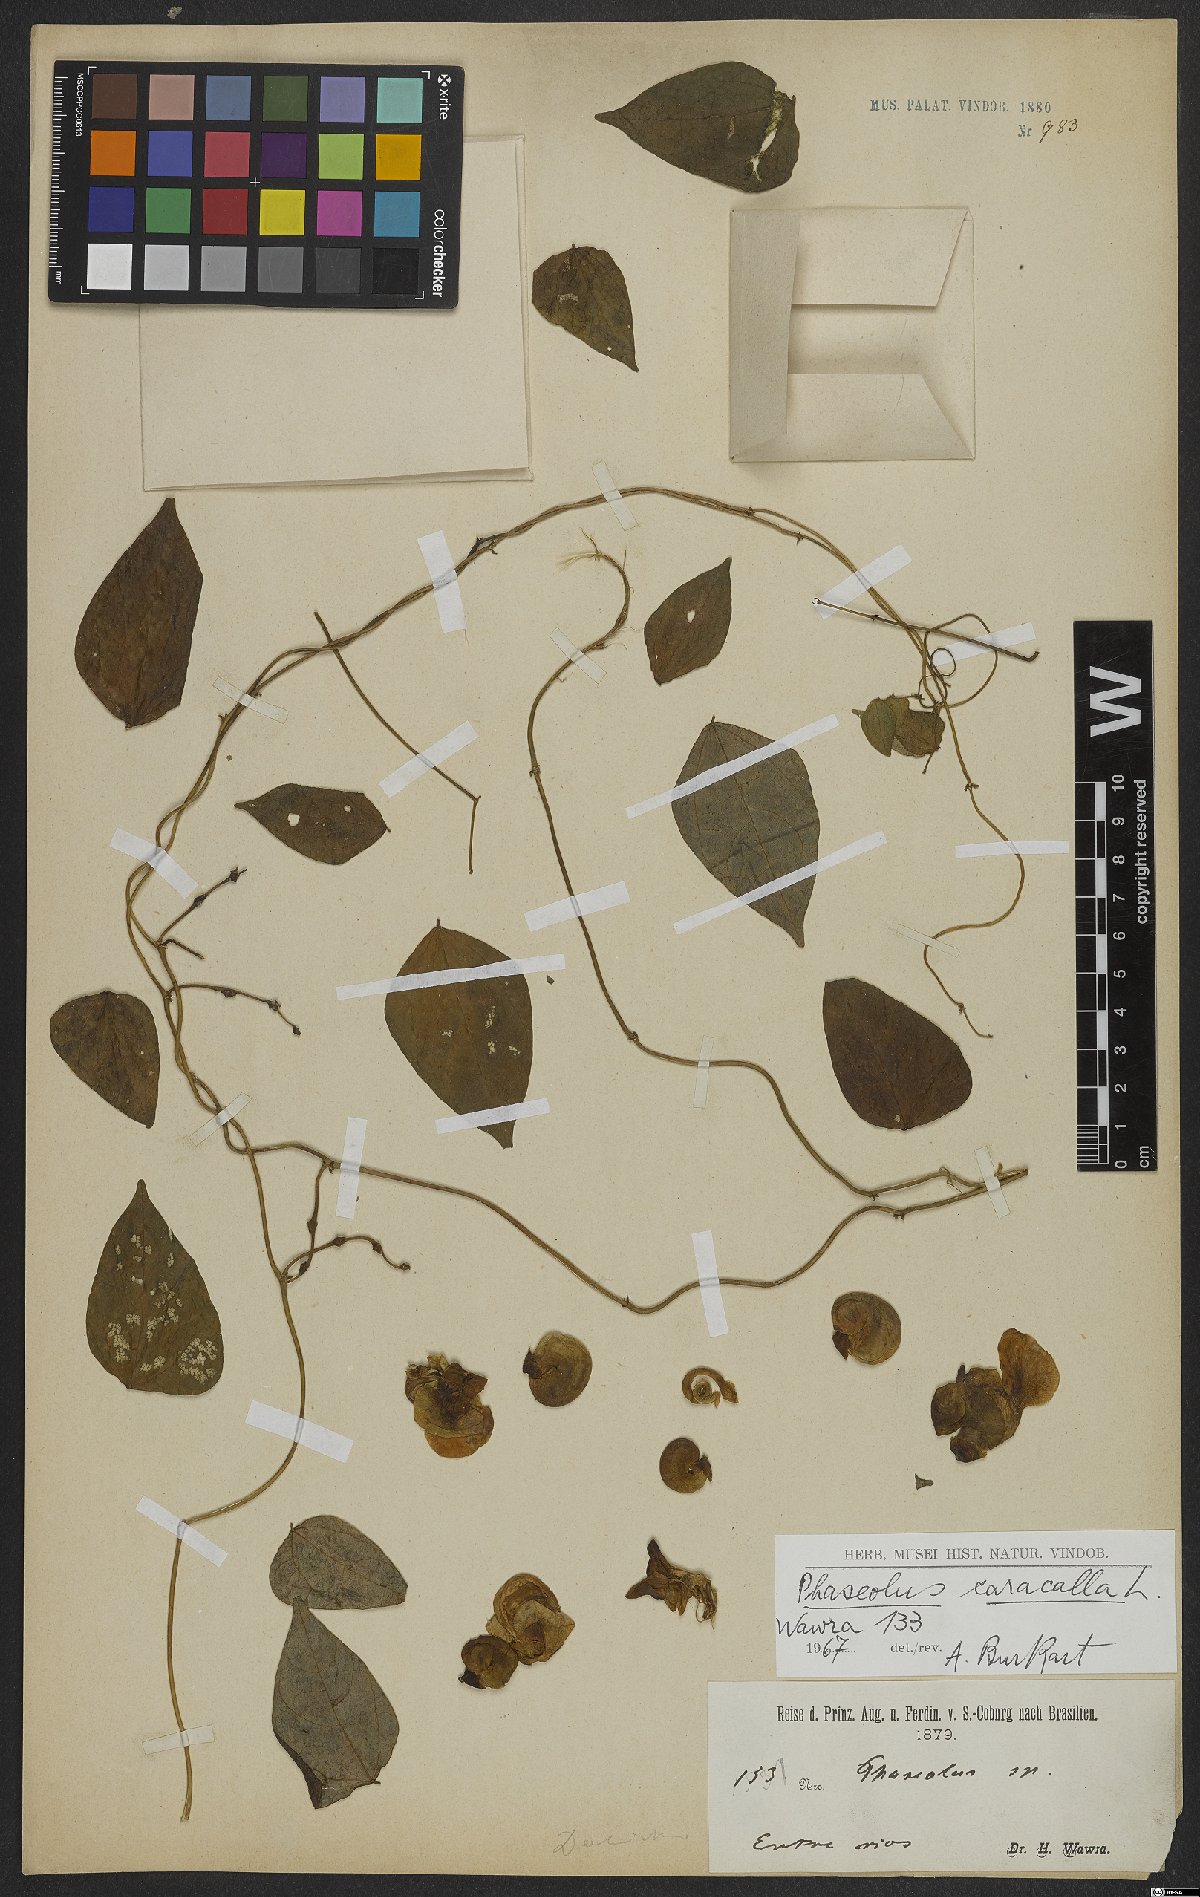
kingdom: Plantae
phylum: Tracheophyta
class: Magnoliopsida
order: Fabales
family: Fabaceae
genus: Cochliasanthus
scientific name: Cochliasanthus caracalla
